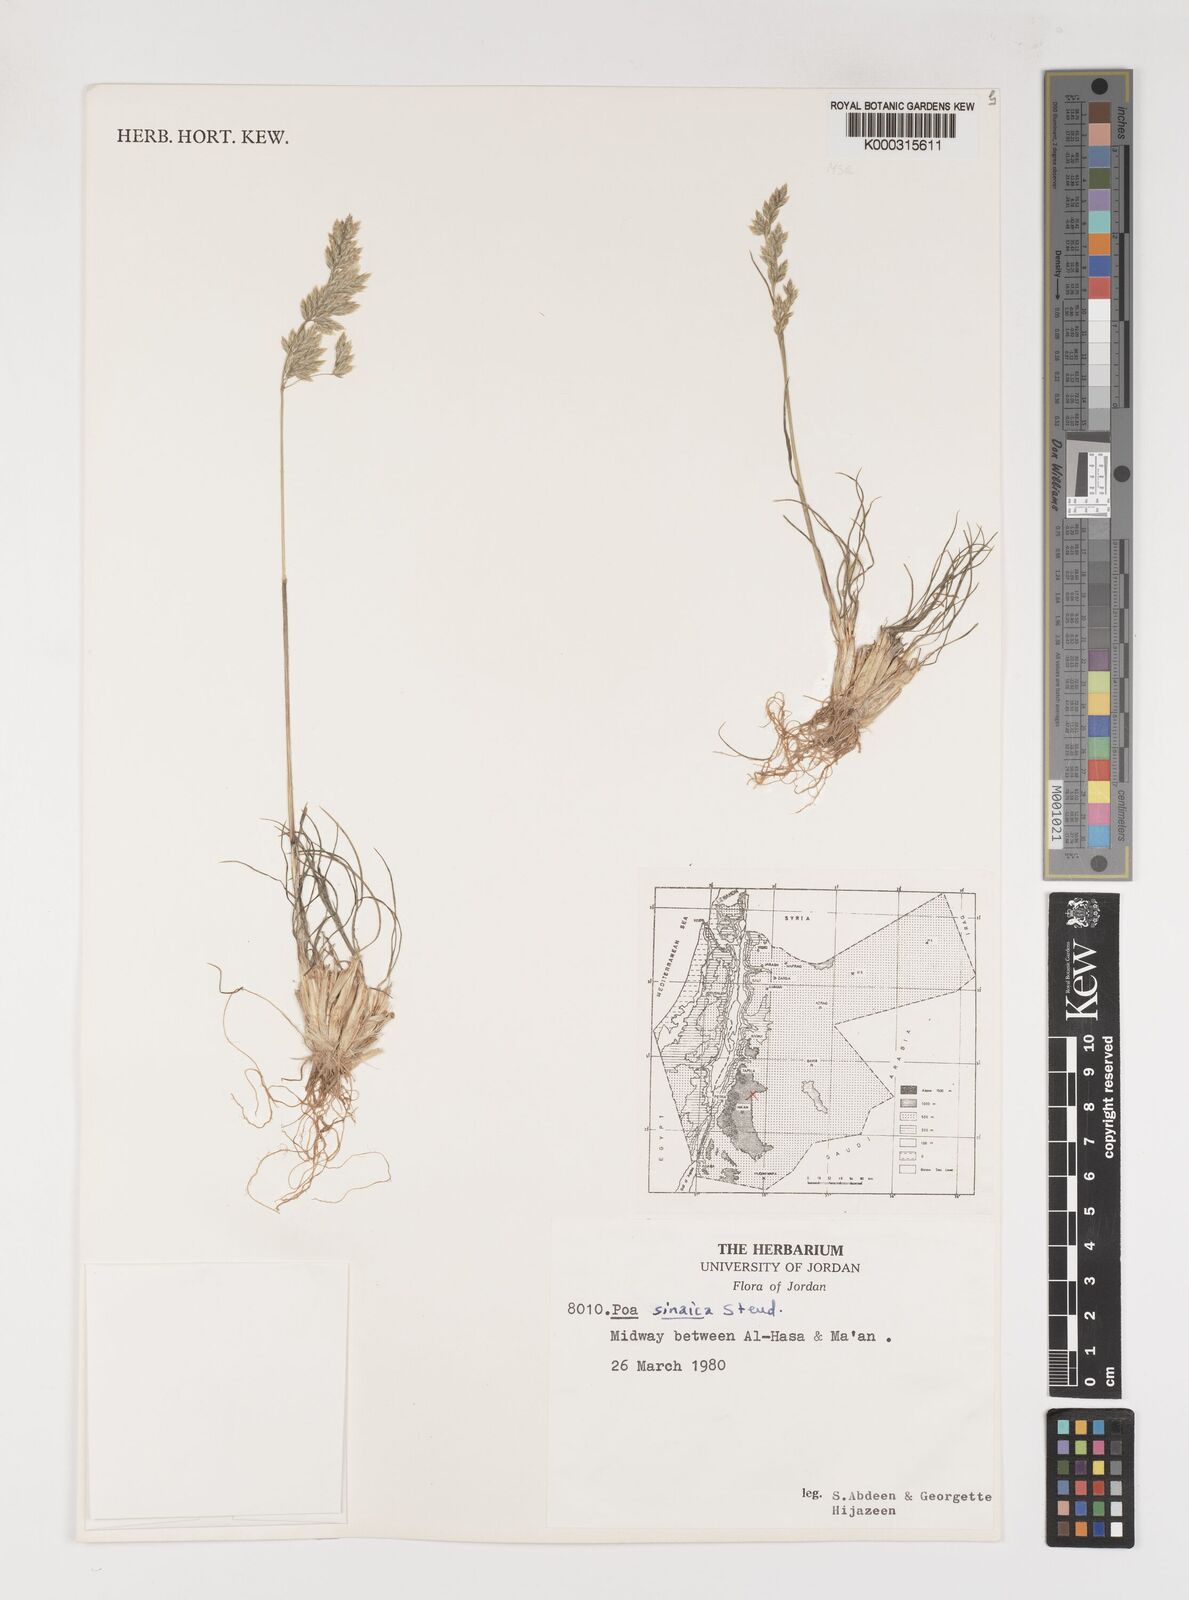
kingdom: Plantae
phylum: Tracheophyta
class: Liliopsida
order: Poales
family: Poaceae
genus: Poa
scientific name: Poa sinaica
